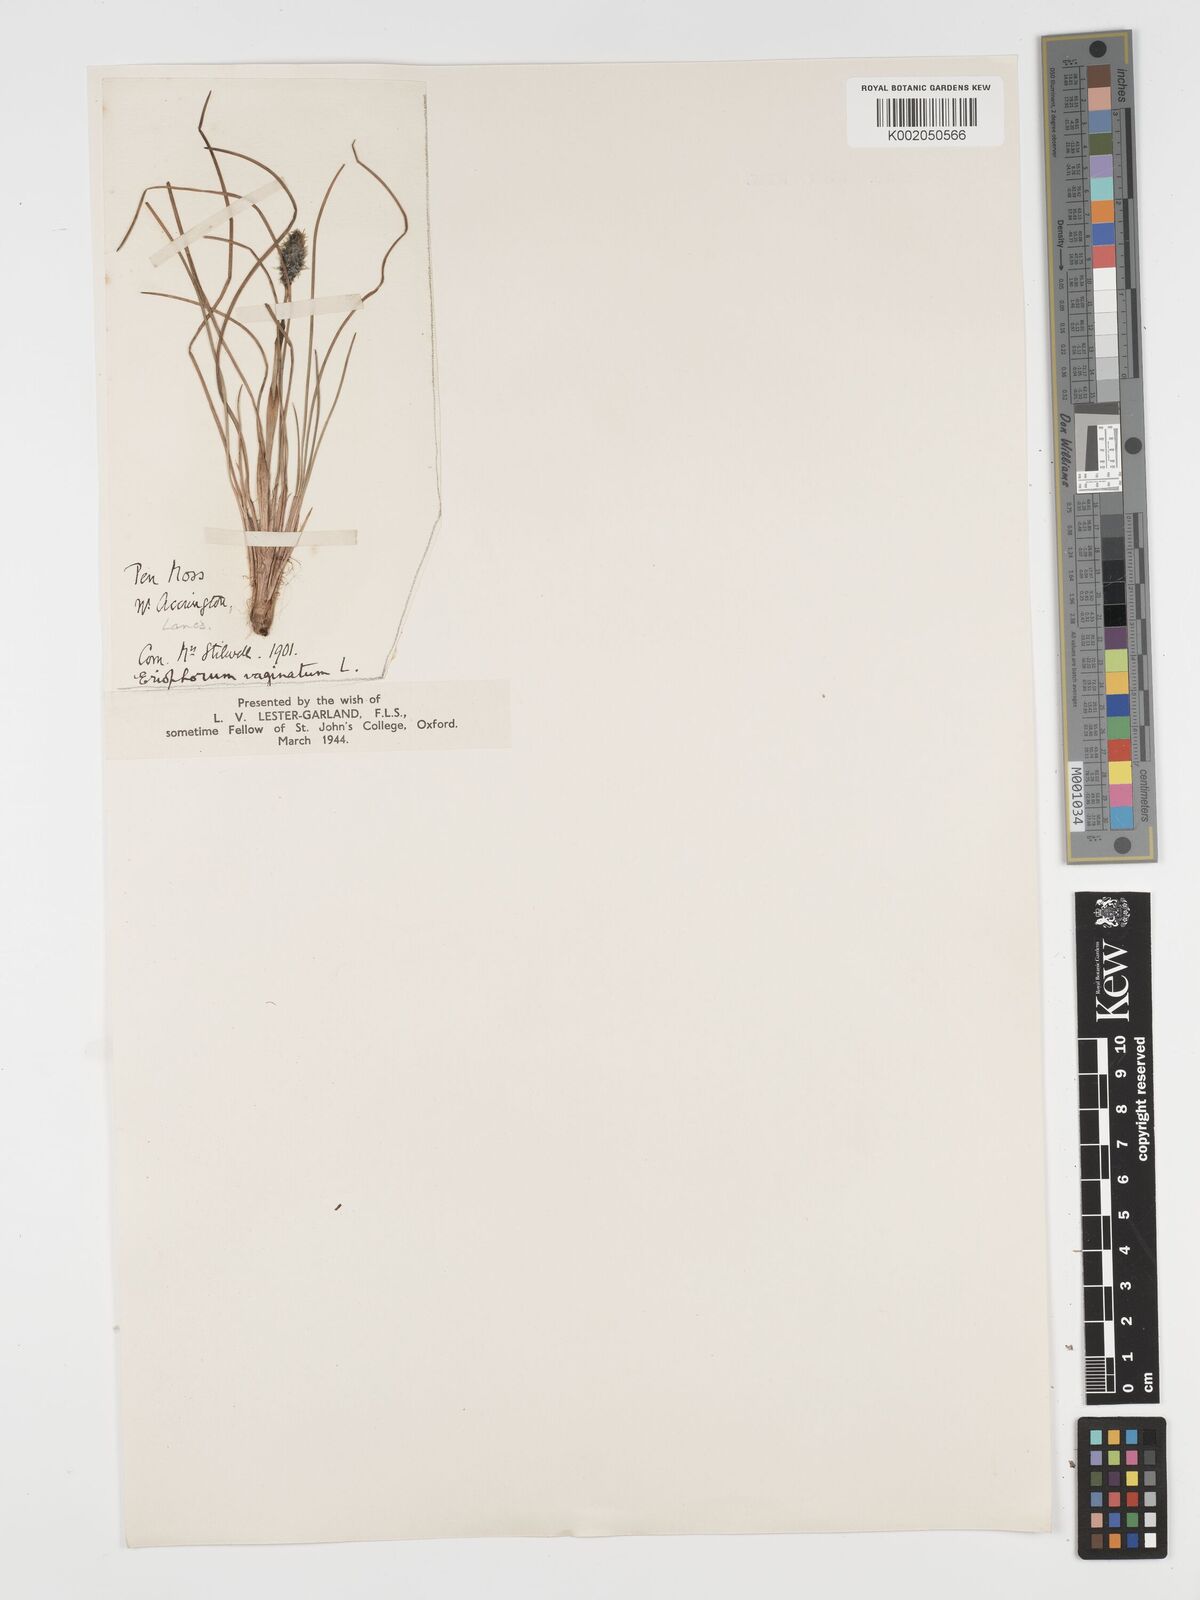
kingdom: Plantae
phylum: Tracheophyta
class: Liliopsida
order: Poales
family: Cyperaceae
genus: Eriophorum
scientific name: Eriophorum vaginatum
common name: Hare's-tail cottongrass
